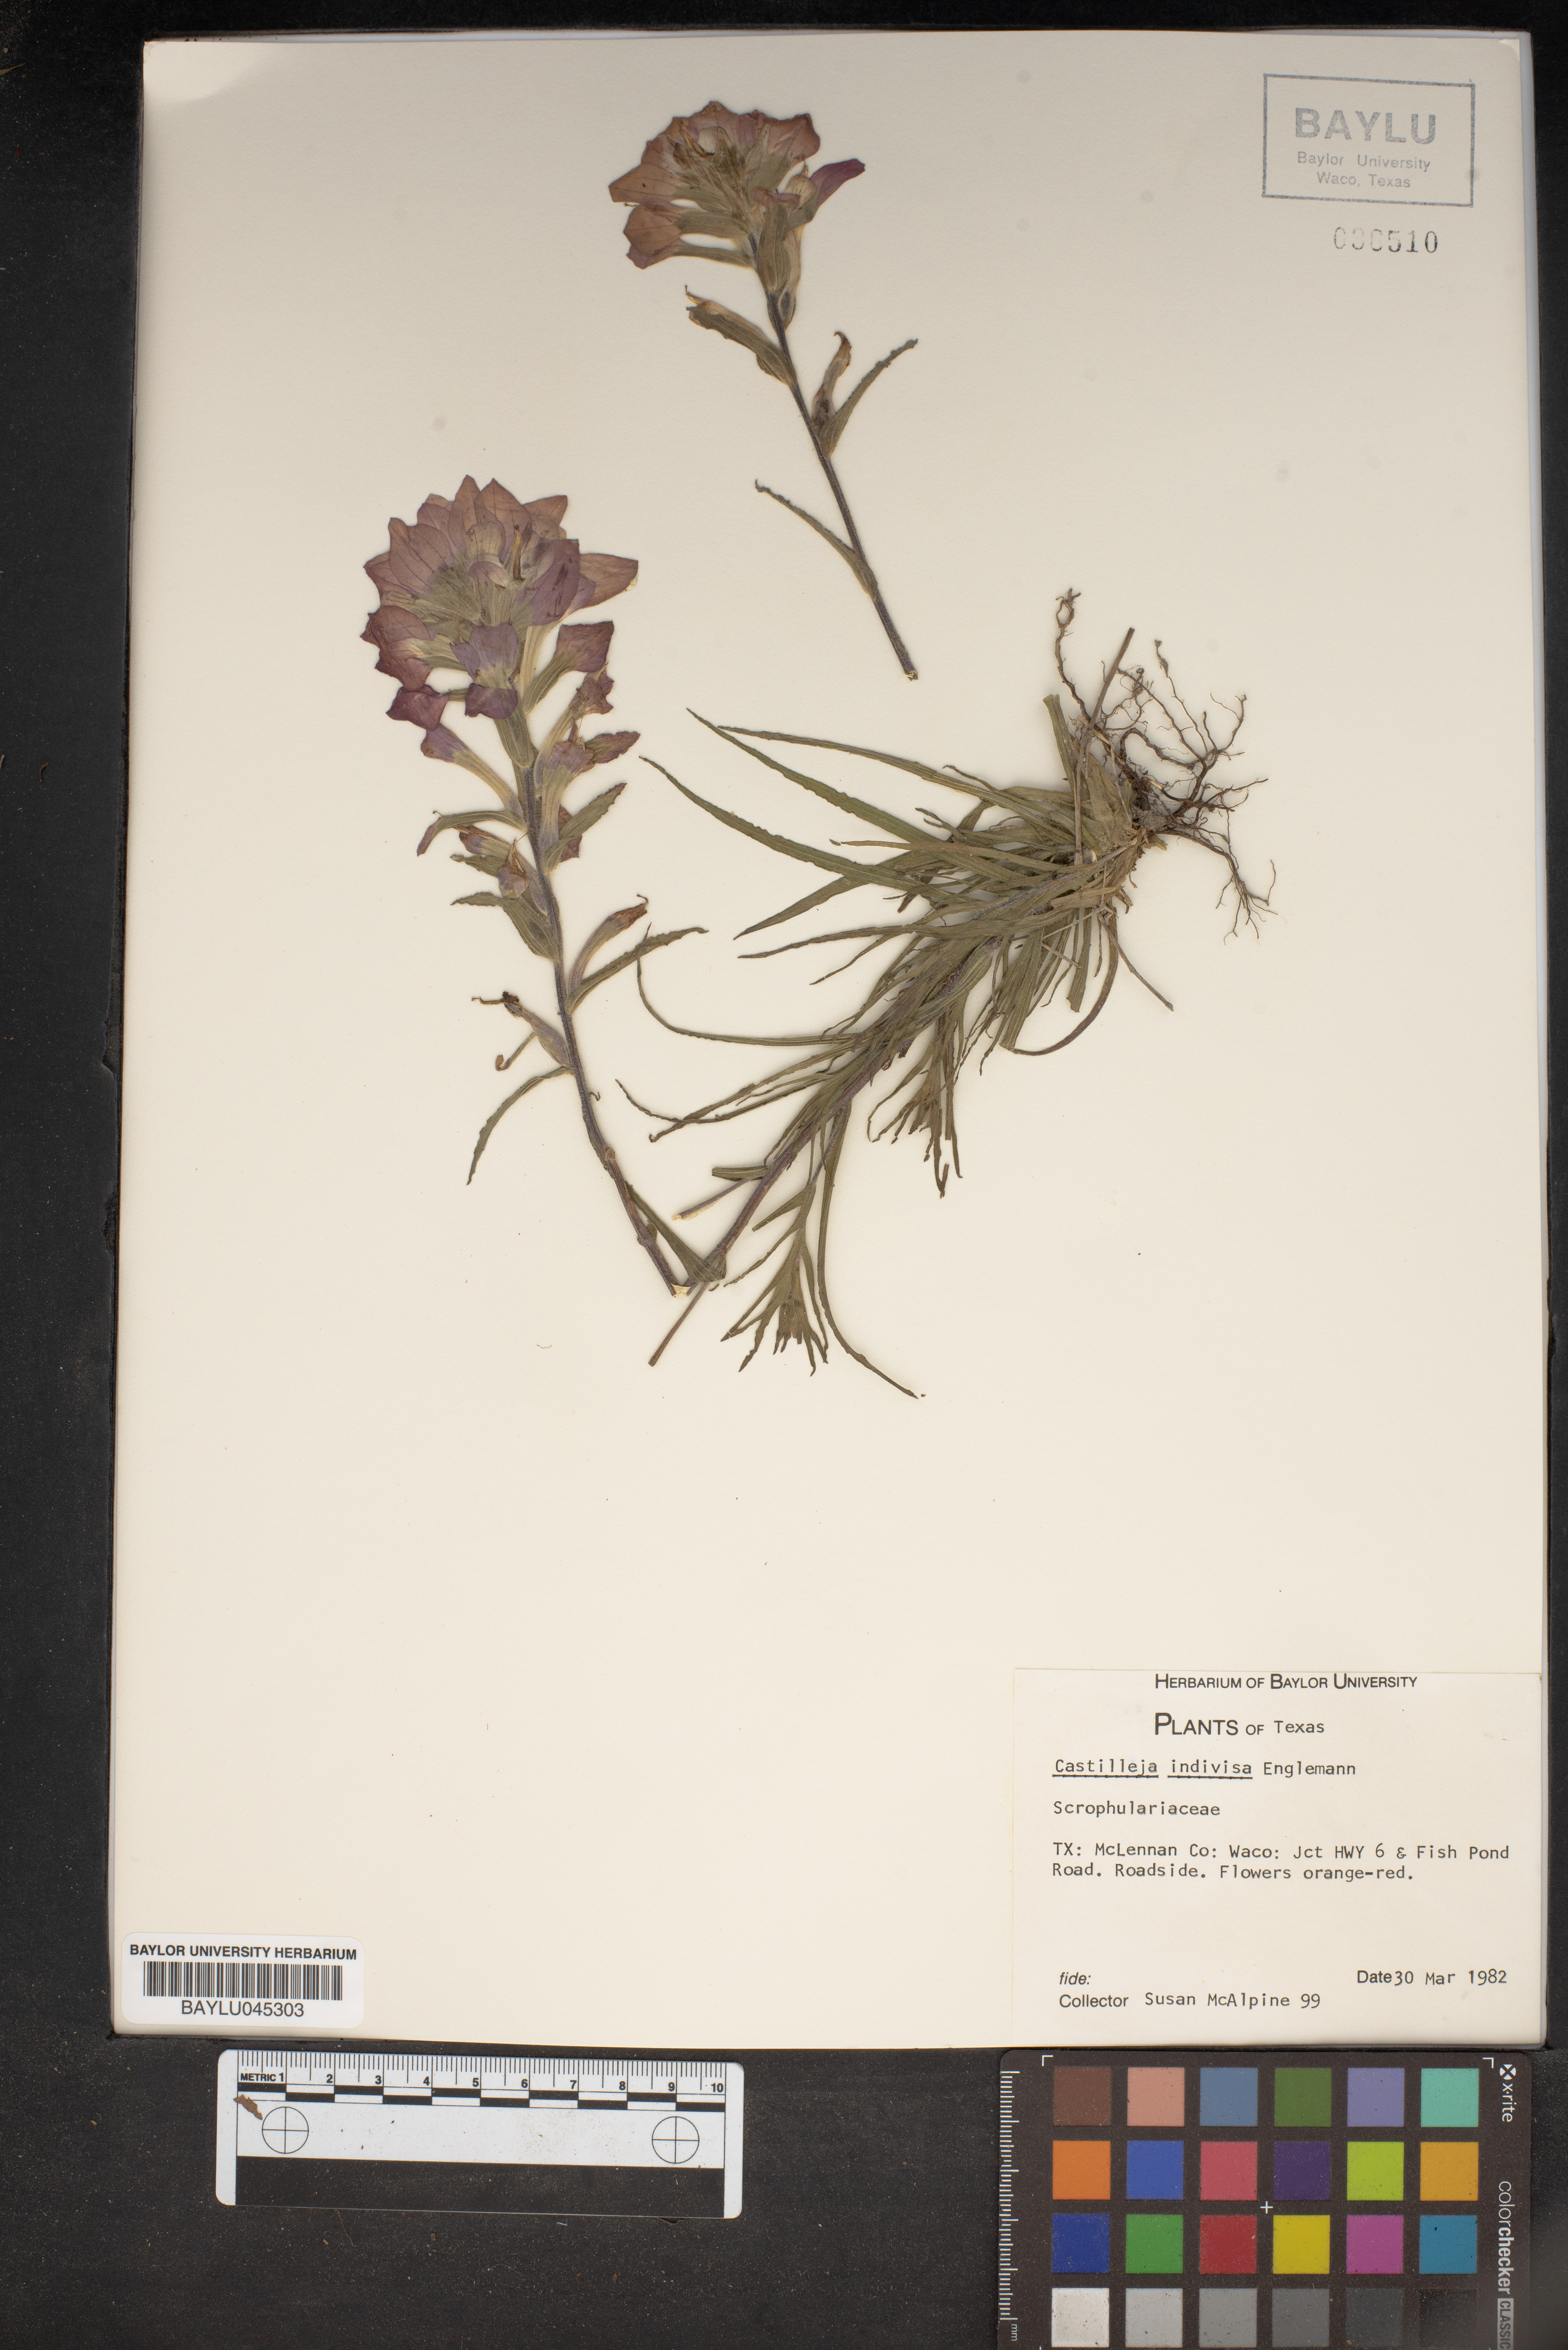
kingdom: Plantae
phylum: Tracheophyta
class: Magnoliopsida
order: Lamiales
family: Orobanchaceae
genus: Castilleja
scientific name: Castilleja indivisa
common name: Texas paintbrush
